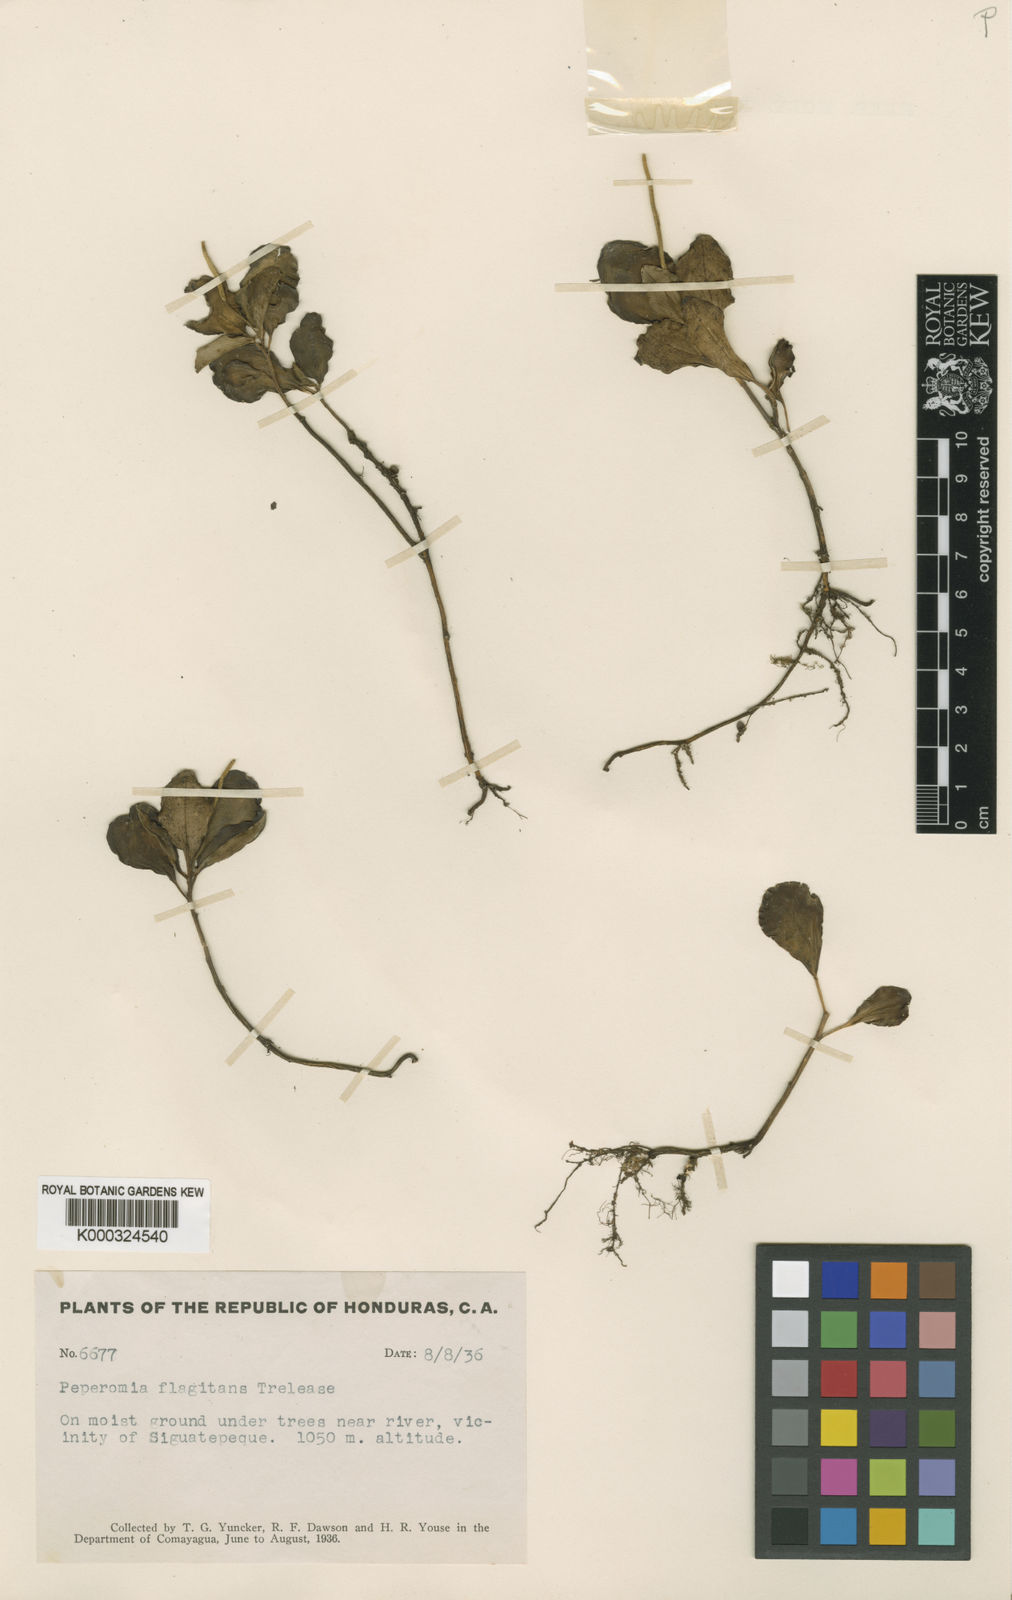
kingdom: Plantae
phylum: Tracheophyta
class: Magnoliopsida
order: Piperales
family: Piperaceae
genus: Peperomia
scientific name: Peperomia succulenta
